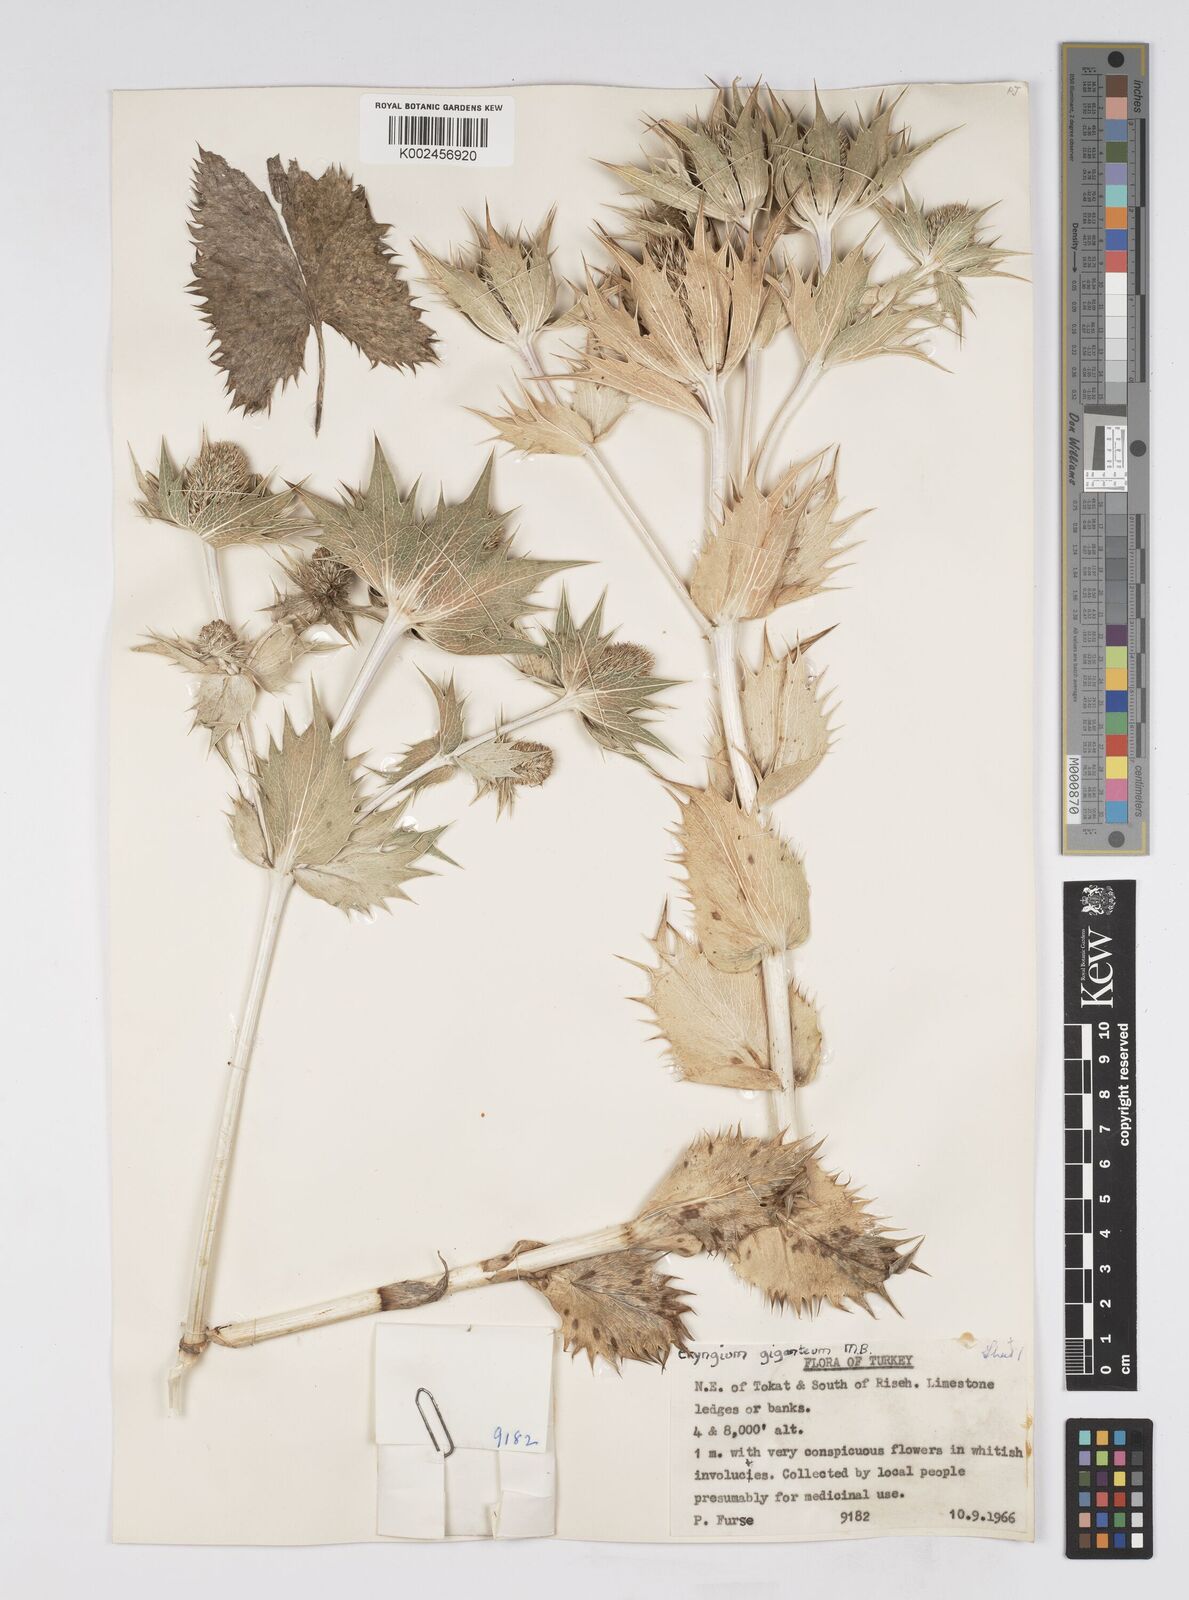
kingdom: Plantae
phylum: Tracheophyta
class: Magnoliopsida
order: Apiales
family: Apiaceae
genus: Eryngium
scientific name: Eryngium giganteum
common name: Tall eryngo
